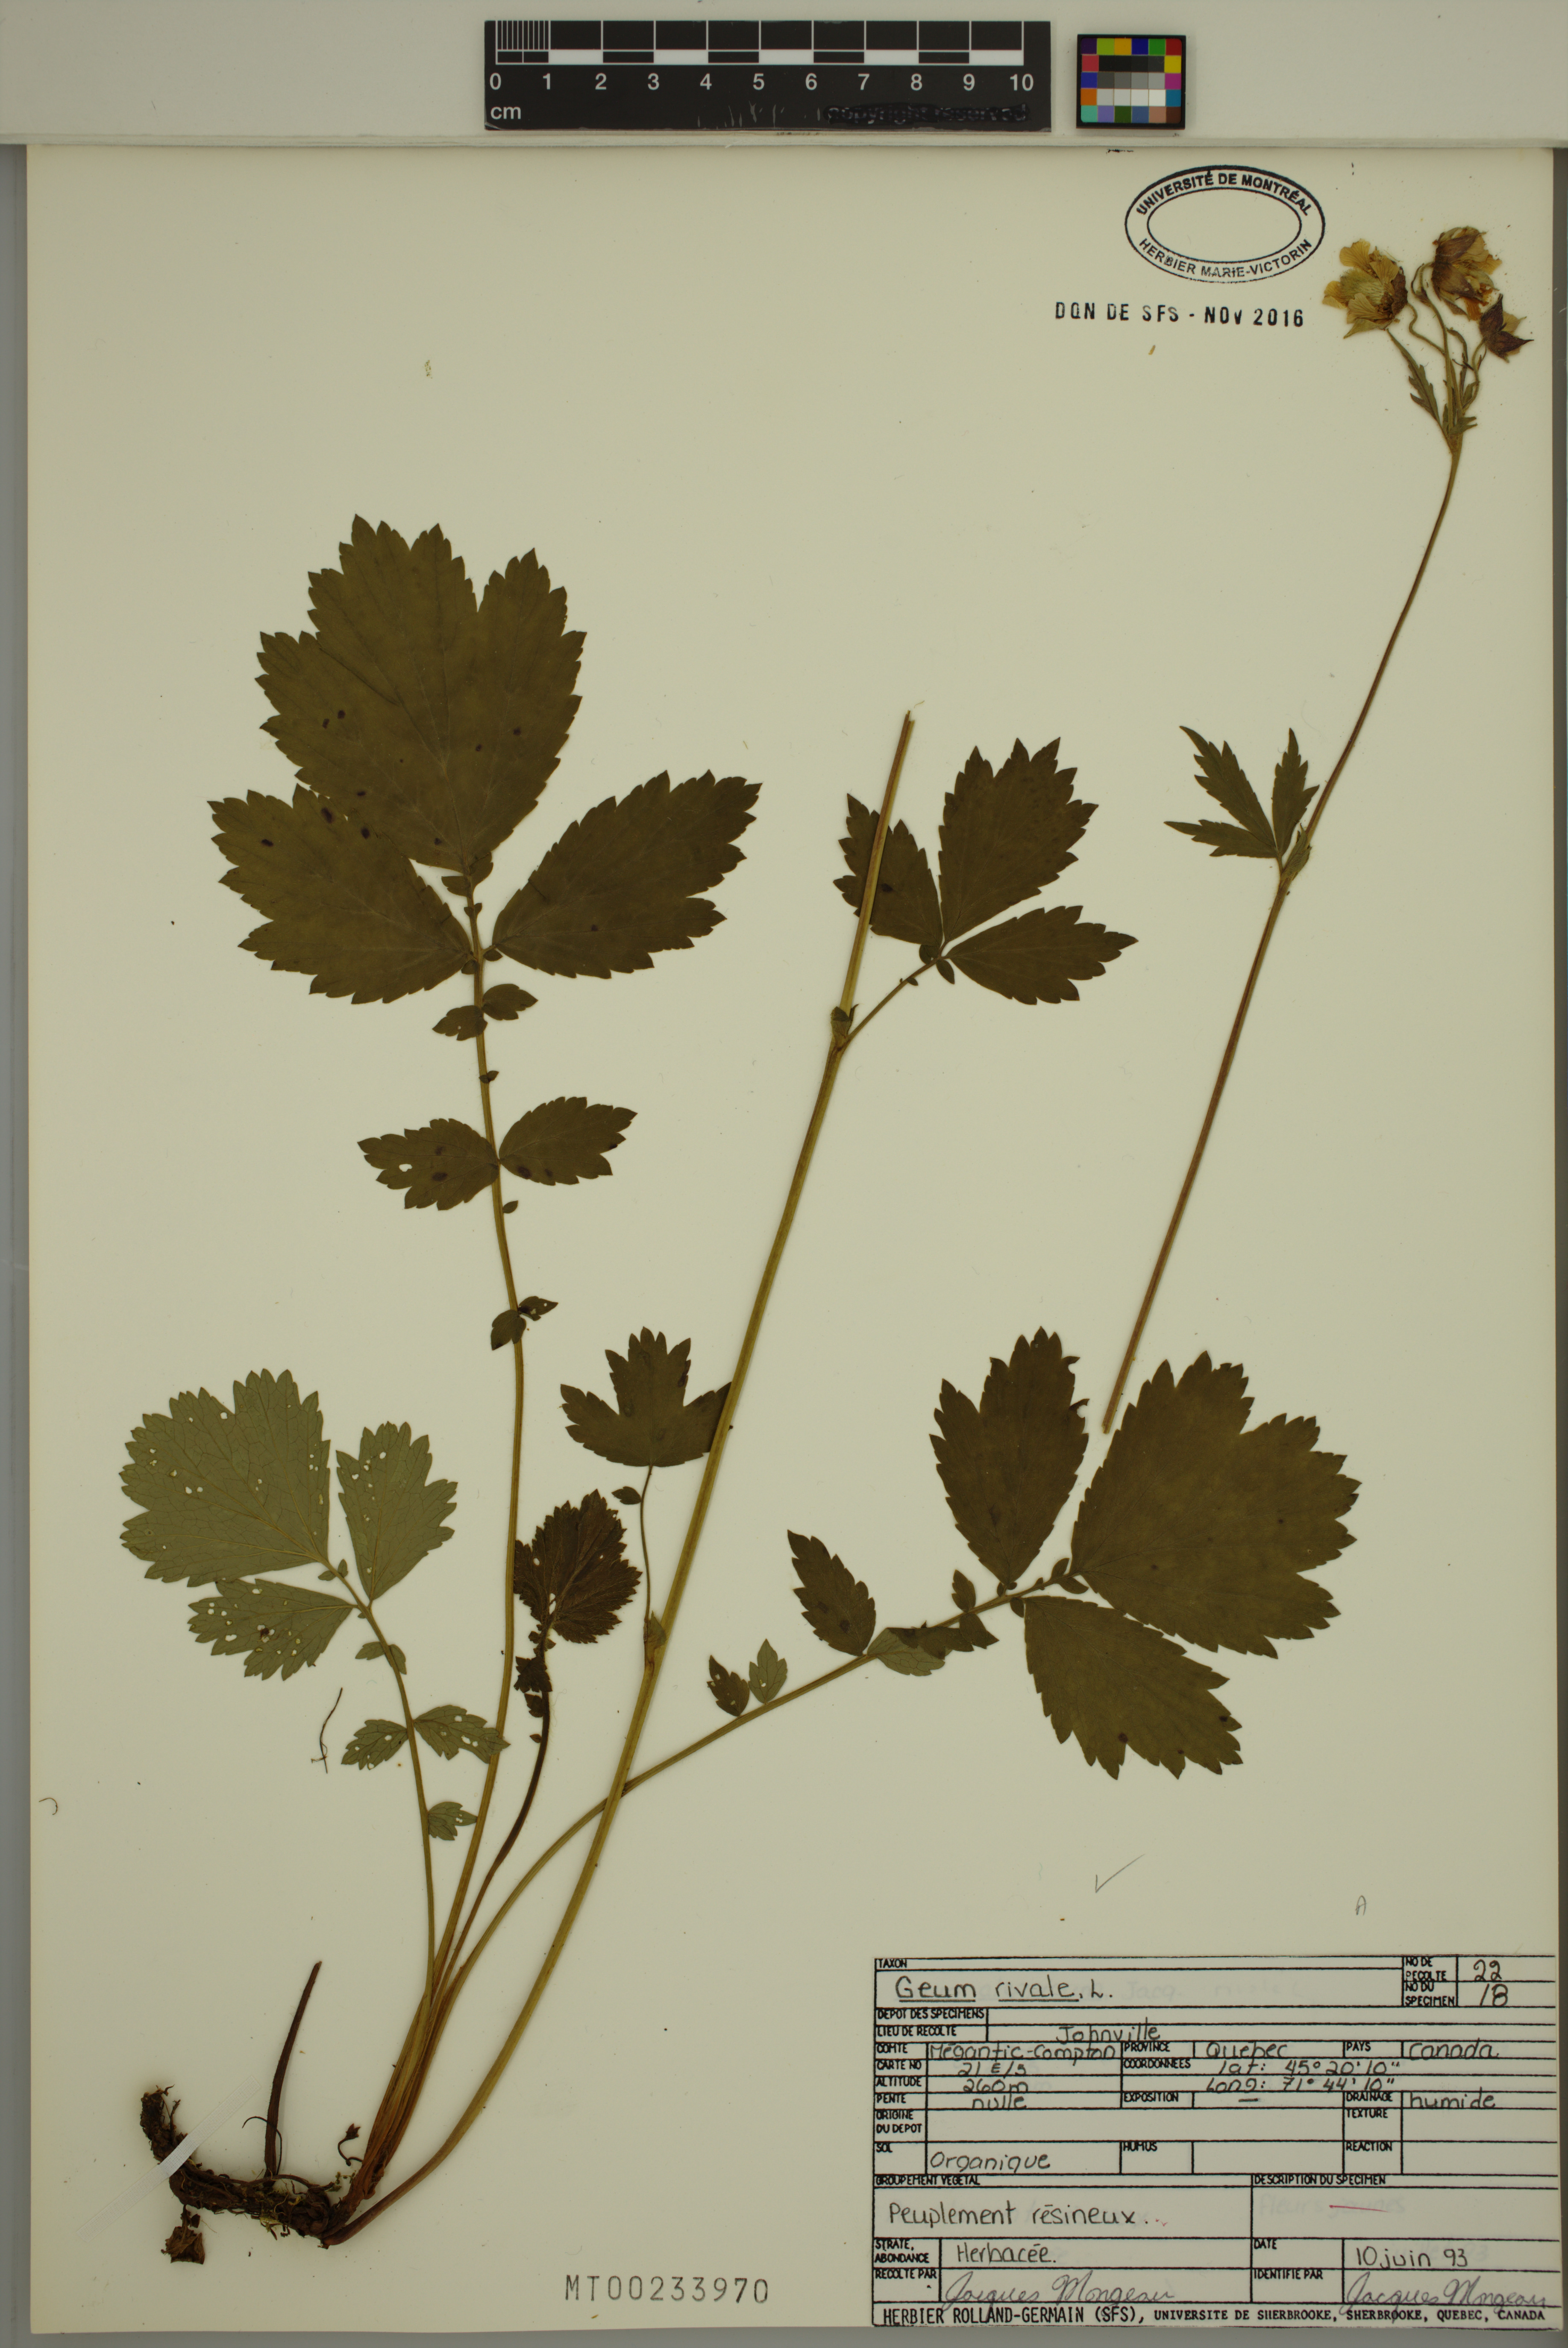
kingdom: Plantae
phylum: Tracheophyta
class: Magnoliopsida
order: Rosales
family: Rosaceae
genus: Geum
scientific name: Geum rivale
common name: Water avens
